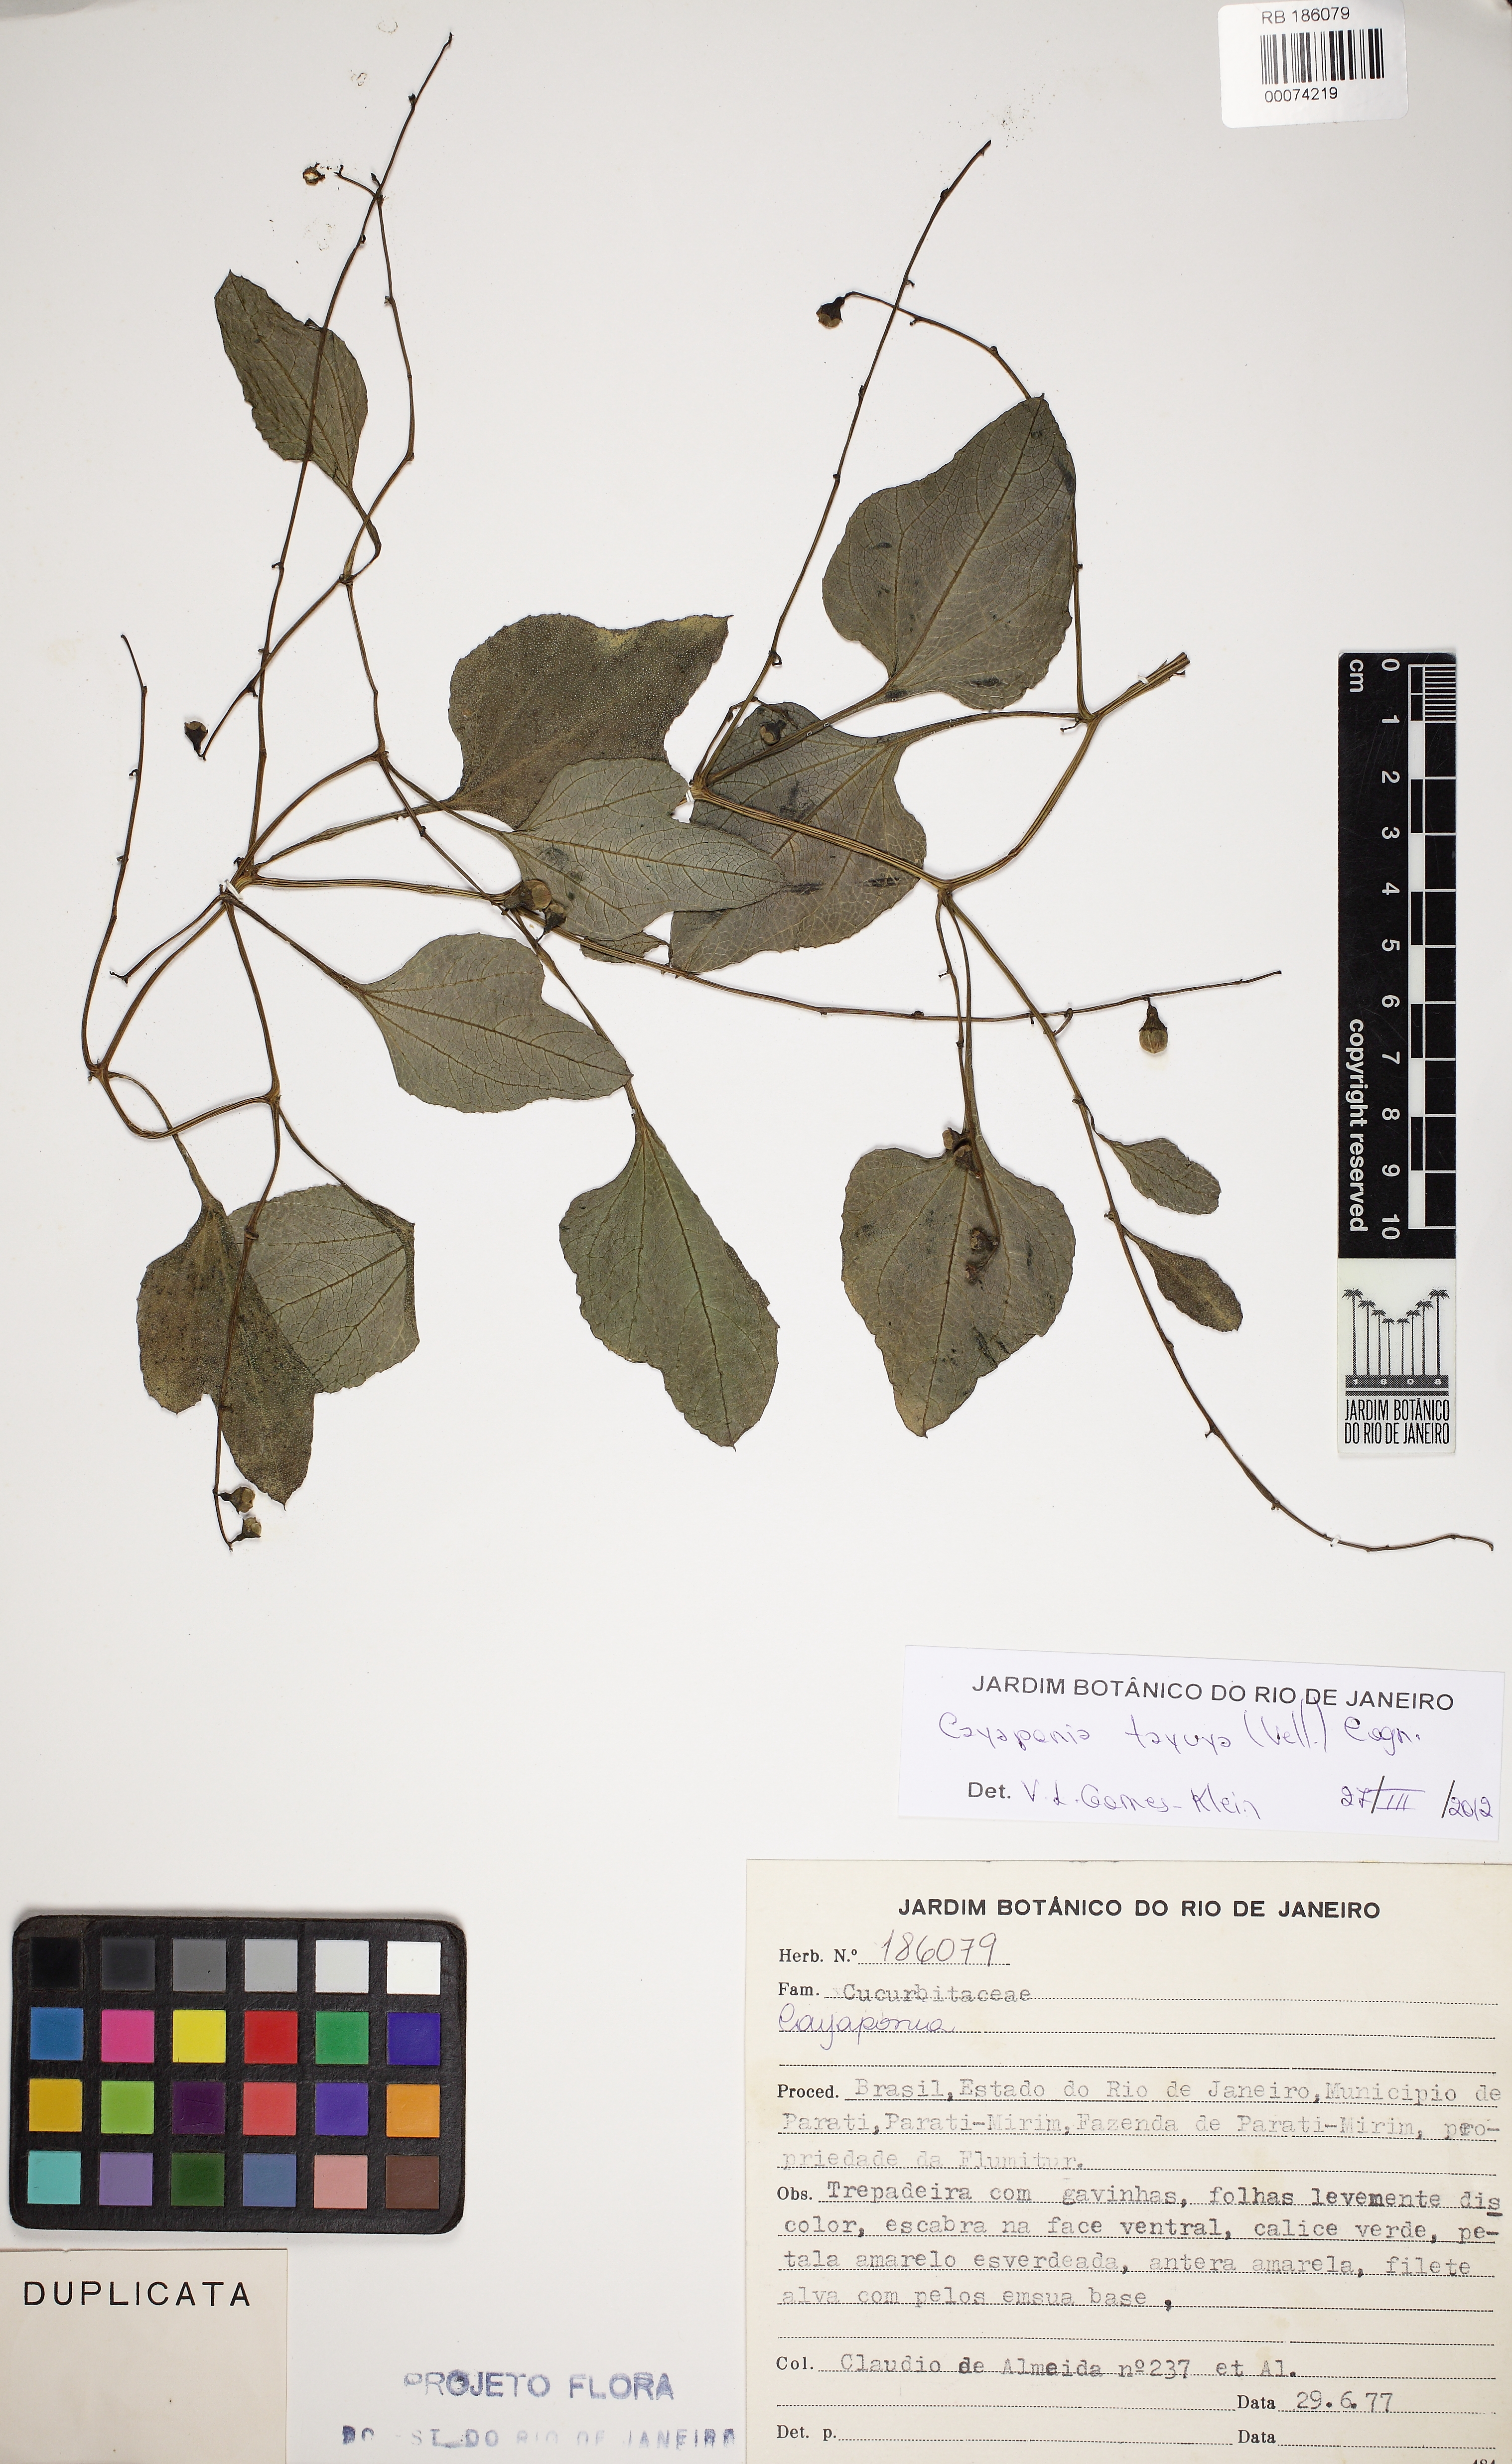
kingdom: Plantae
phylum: Tracheophyta
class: Magnoliopsida
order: Cucurbitales
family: Cucurbitaceae
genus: Cayaponia
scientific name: Cayaponia tayuya
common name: Tayuya
